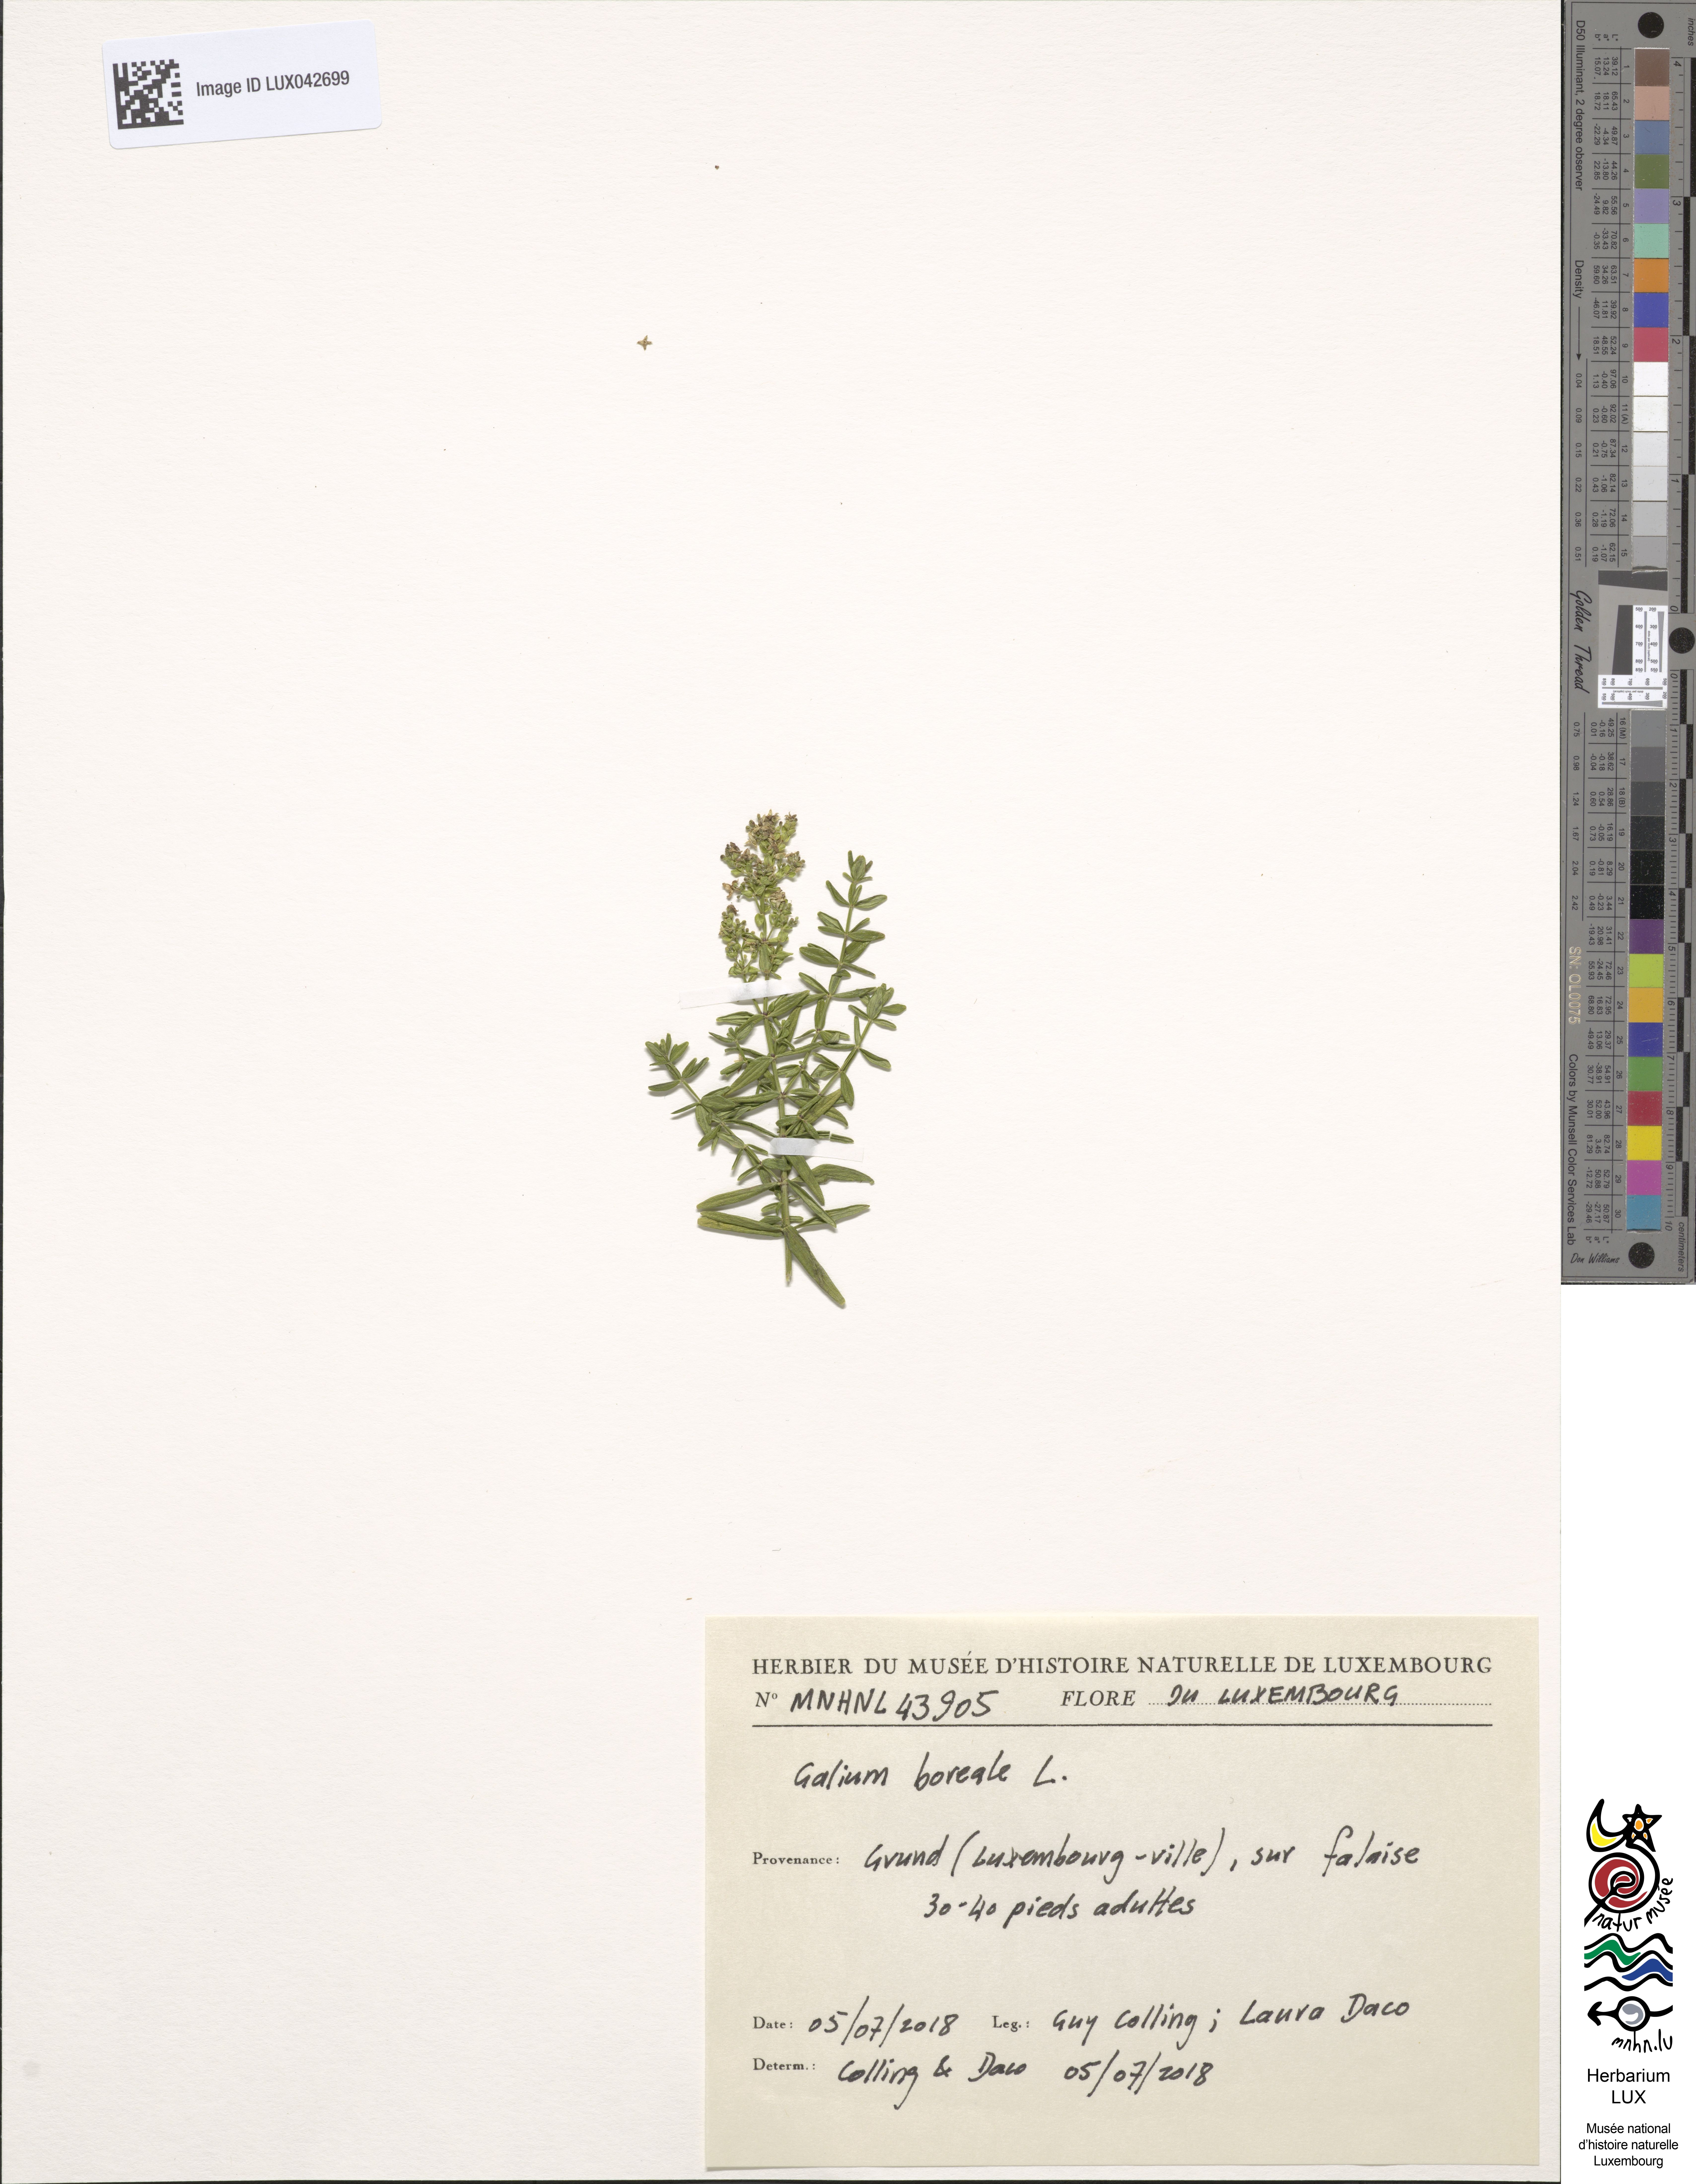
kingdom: Plantae
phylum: Tracheophyta
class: Magnoliopsida
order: Gentianales
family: Rubiaceae
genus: Galium
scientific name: Galium boreale
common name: Northern bedstraw
